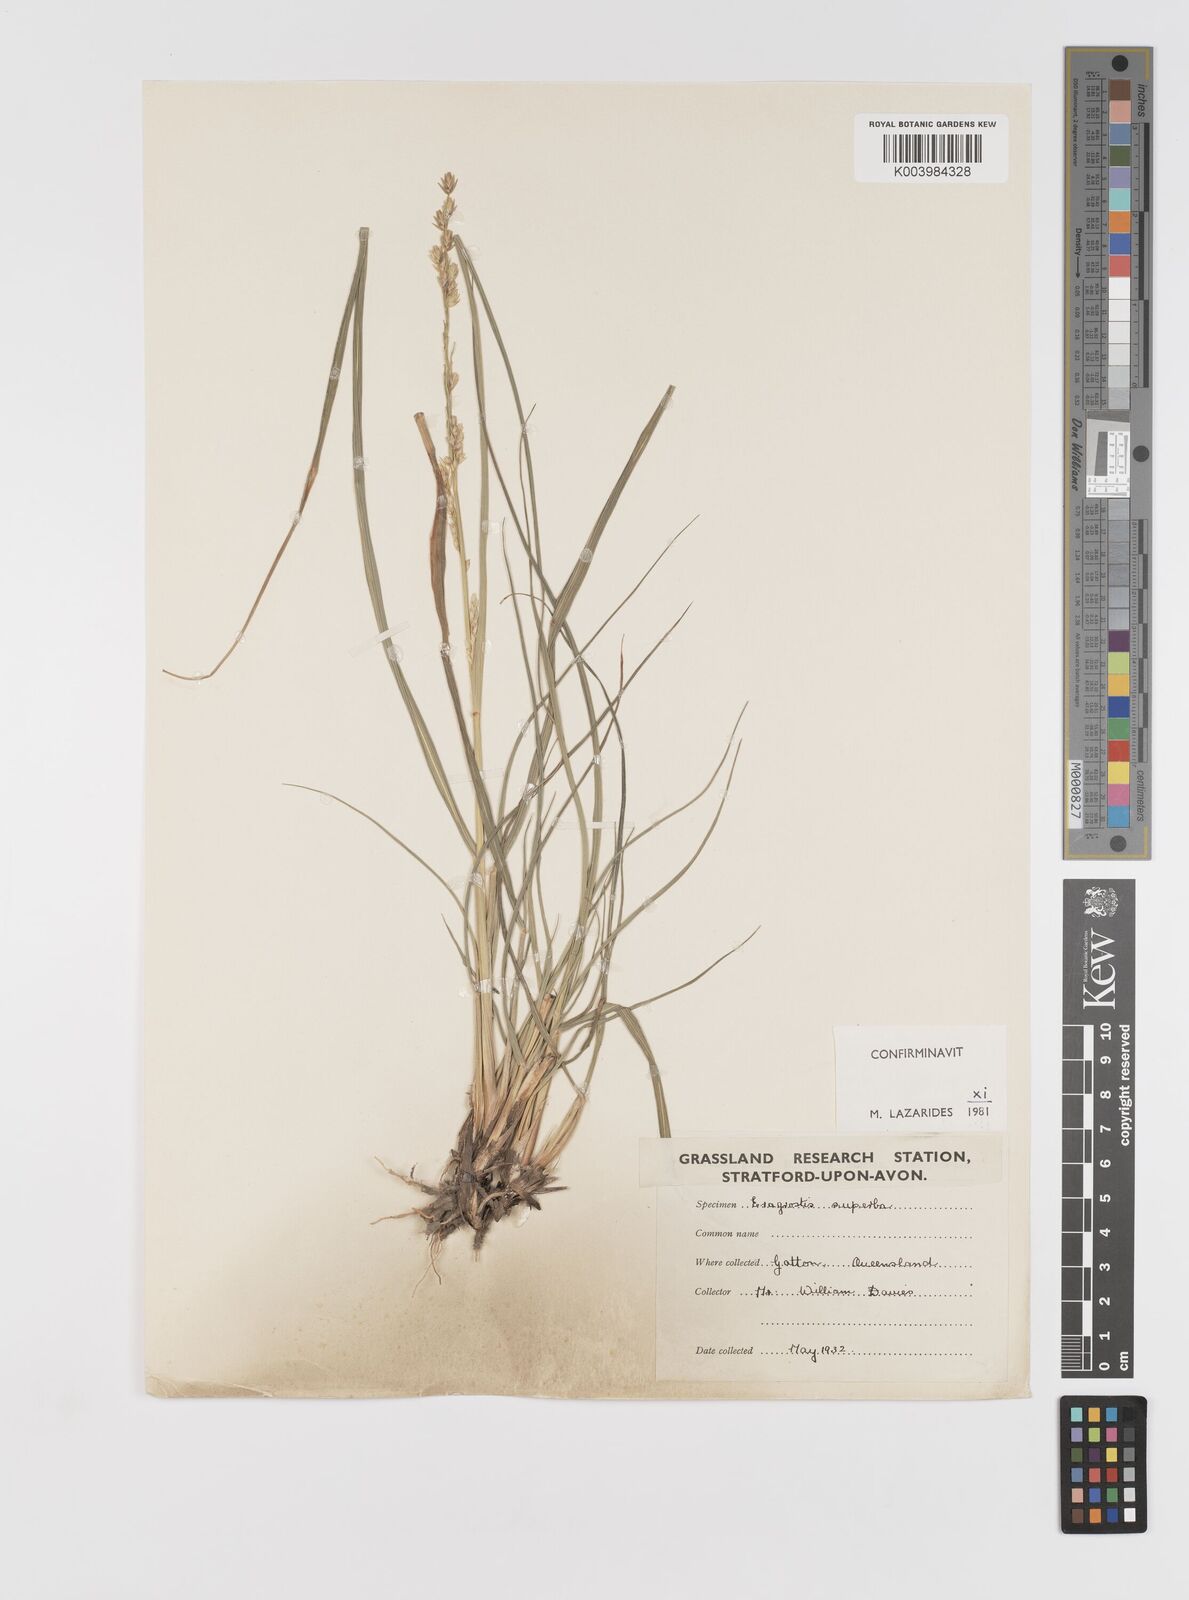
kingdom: Plantae
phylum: Tracheophyta
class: Liliopsida
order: Poales
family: Poaceae
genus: Eragrostis
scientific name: Eragrostis superba
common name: Wilman lovegrass
